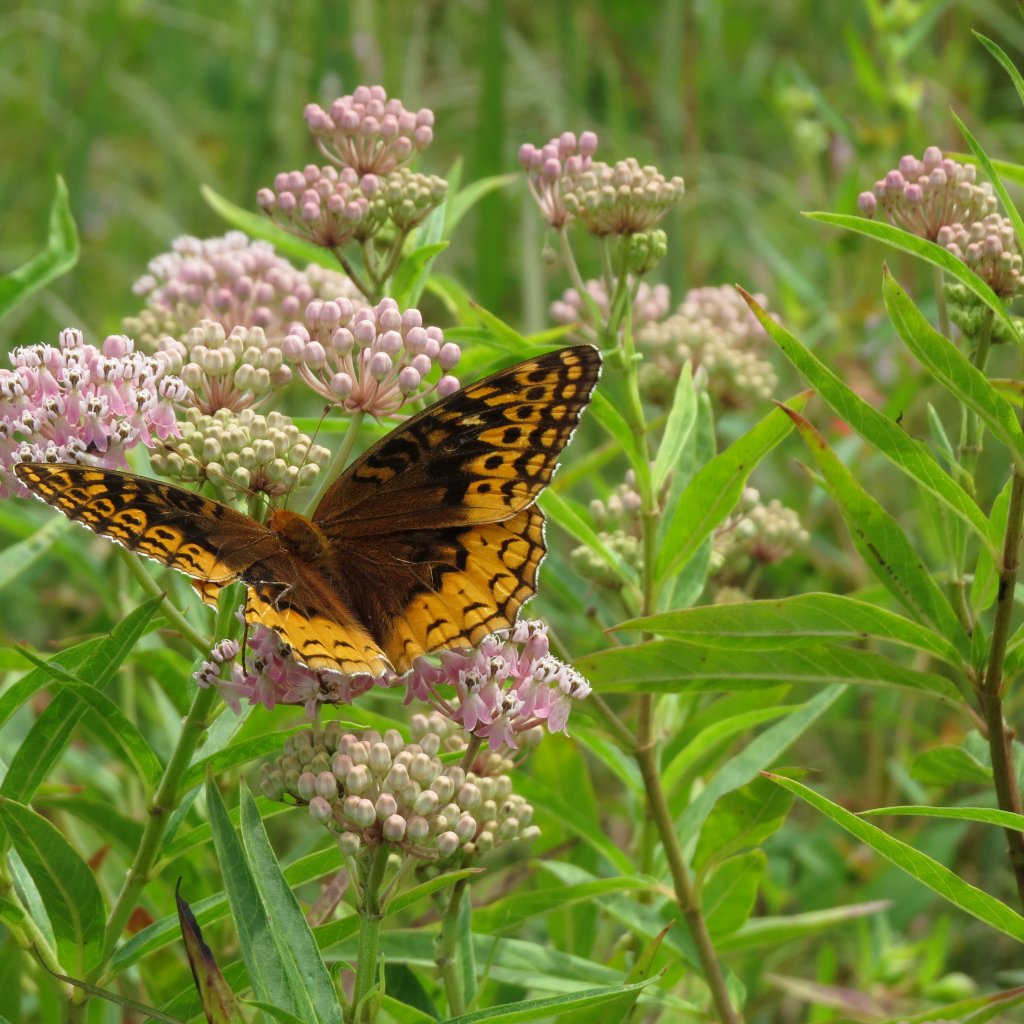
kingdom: Animalia
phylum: Arthropoda
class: Insecta
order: Lepidoptera
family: Nymphalidae
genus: Speyeria
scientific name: Speyeria cybele
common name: Great Spangled Fritillary
